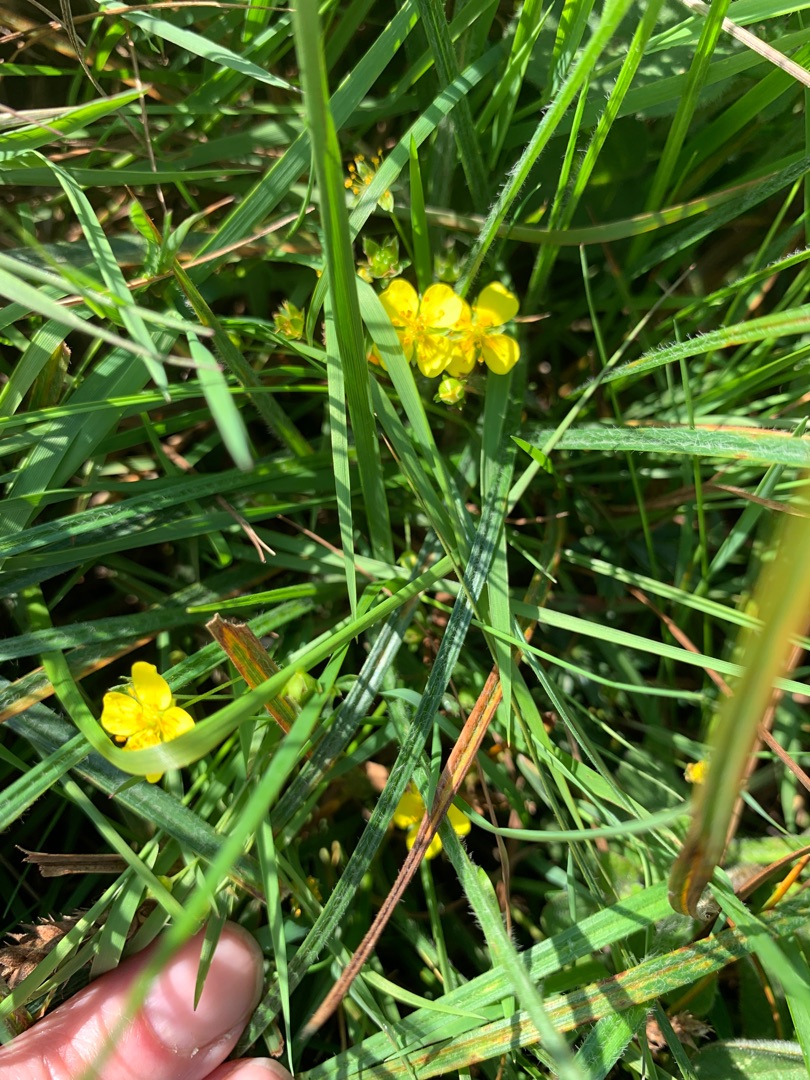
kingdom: Plantae
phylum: Tracheophyta
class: Magnoliopsida
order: Rosales
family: Rosaceae
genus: Potentilla
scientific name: Potentilla erecta
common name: Tormentil
